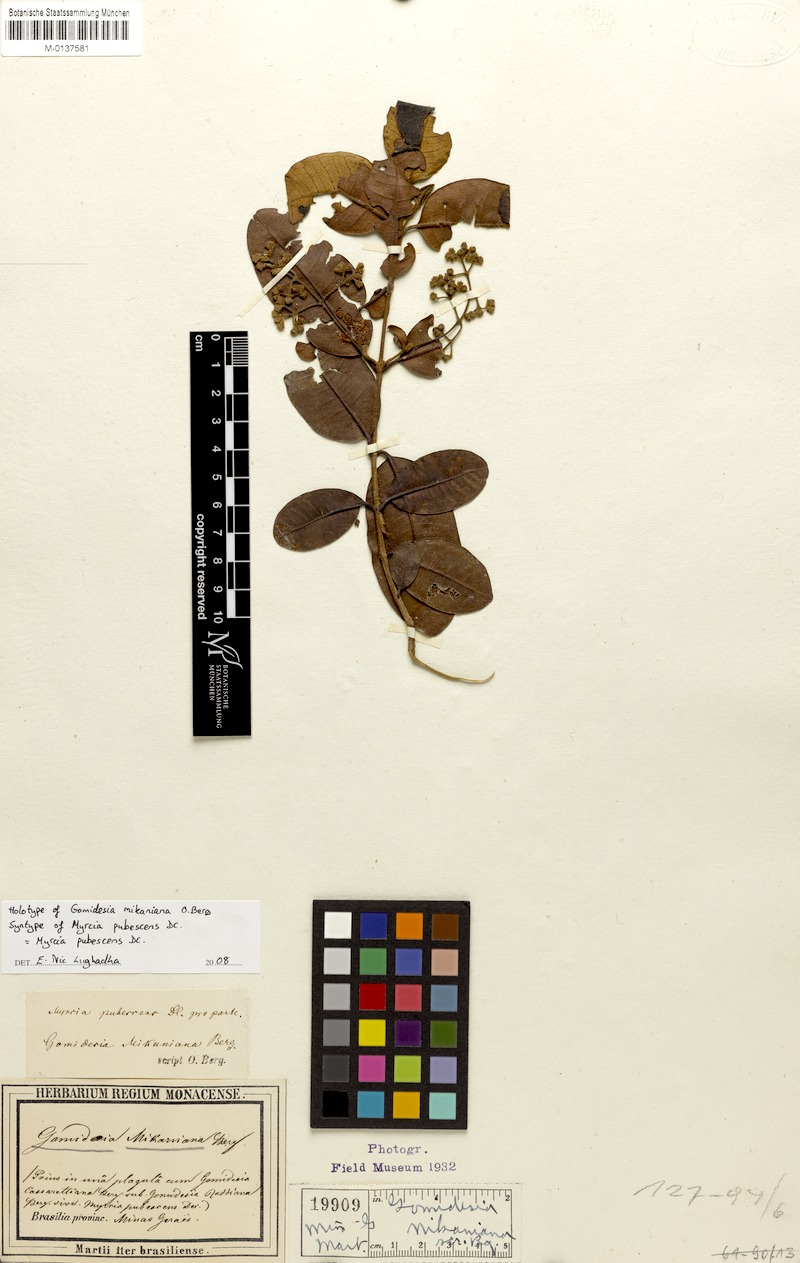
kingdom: Plantae
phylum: Tracheophyta
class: Magnoliopsida
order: Myrtales
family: Myrtaceae
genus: Myrcia
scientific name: Myrcia pubescens
